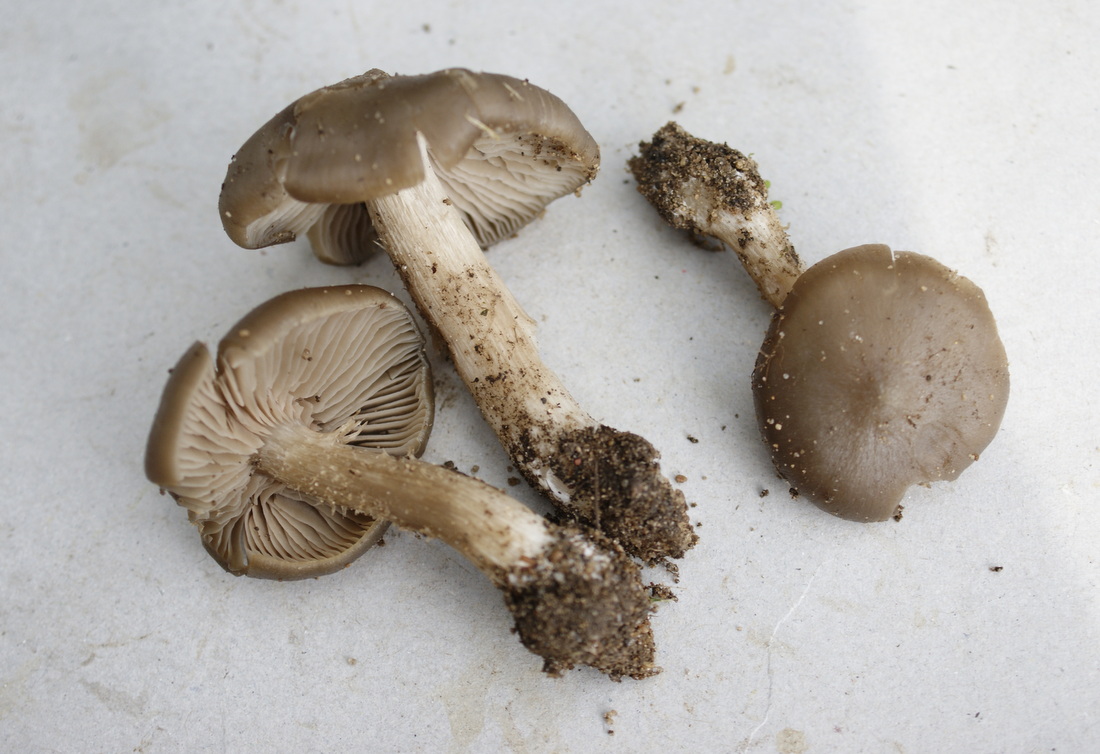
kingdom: Fungi
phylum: Basidiomycota
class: Agaricomycetes
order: Agaricales
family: Entolomataceae
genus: Entoloma
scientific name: Entoloma clypeatum
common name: flammet rødblad
